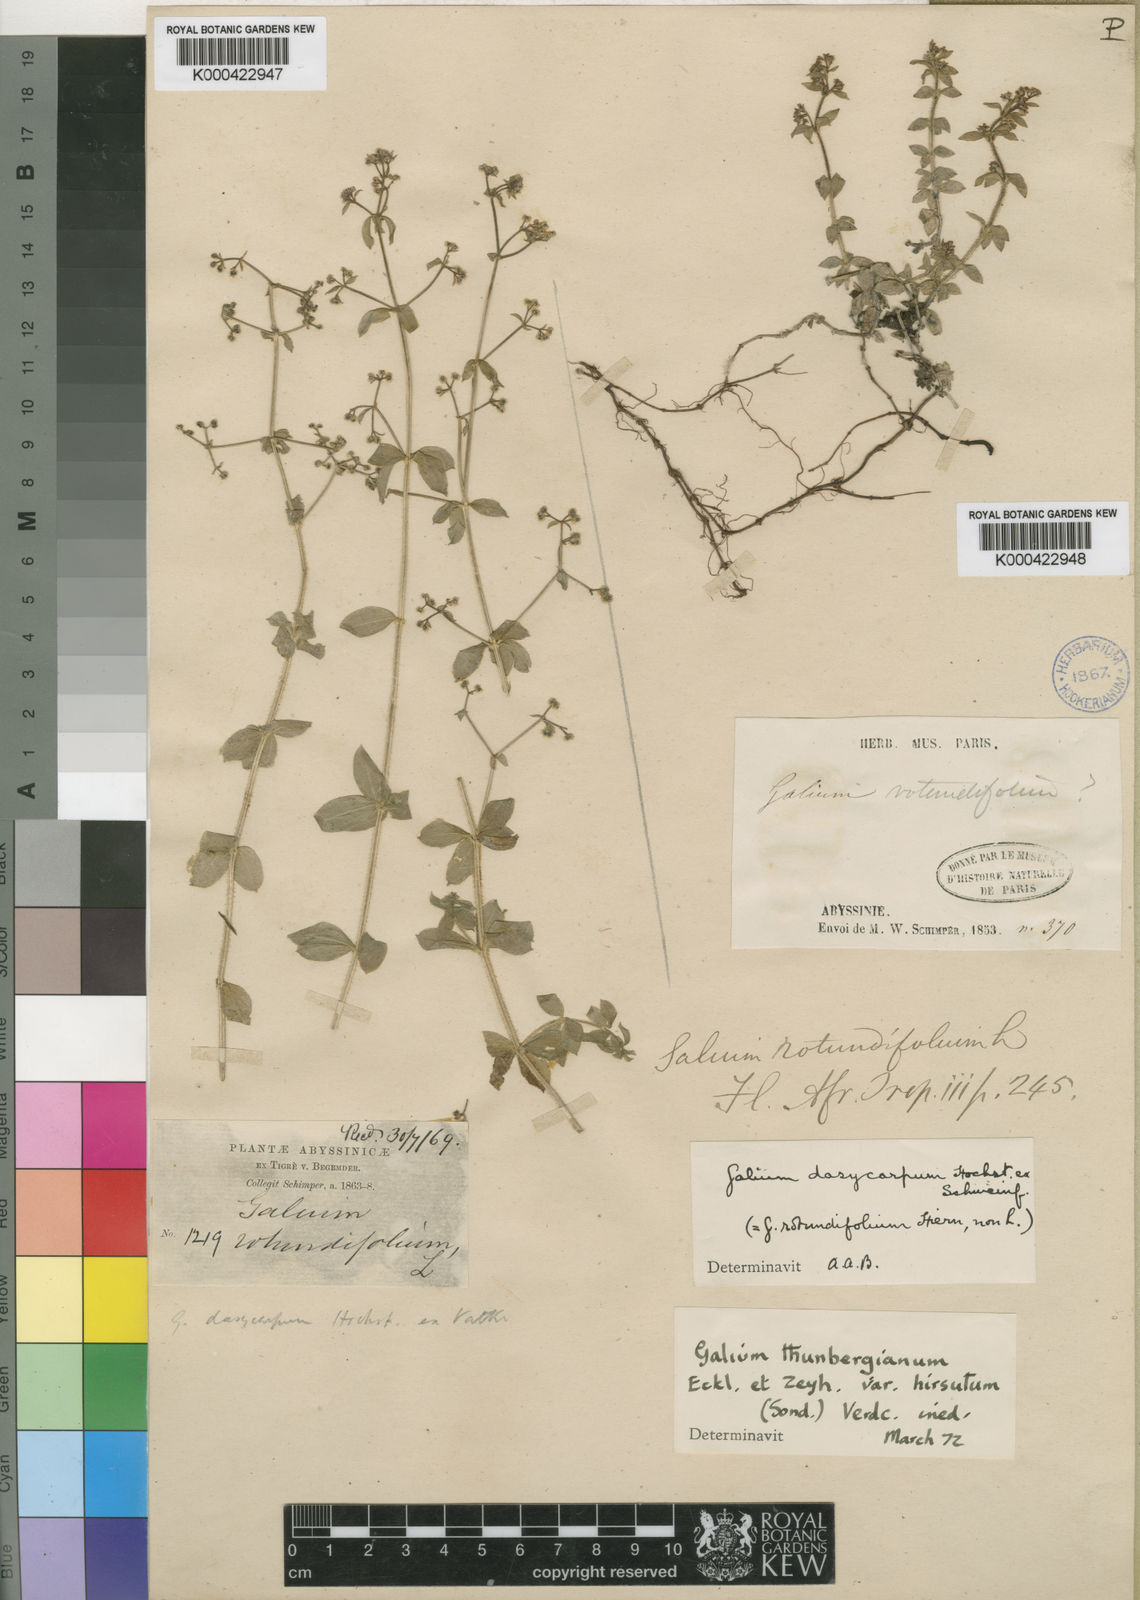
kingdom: Plantae
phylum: Tracheophyta
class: Magnoliopsida
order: Gentianales
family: Rubiaceae
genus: Galium
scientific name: Galium thunbergianum
